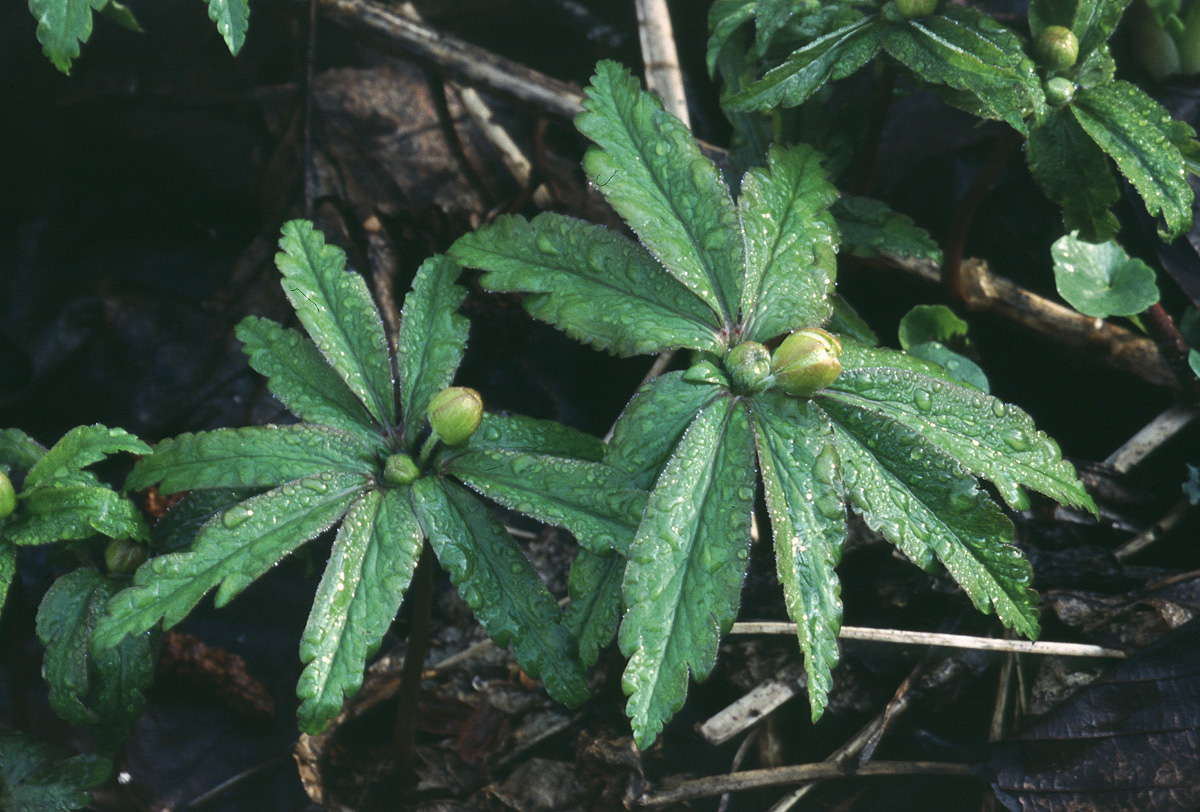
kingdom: Plantae
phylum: Tracheophyta
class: Magnoliopsida
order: Ranunculales
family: Ranunculaceae
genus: Anemone
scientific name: Anemone ranunculoides
